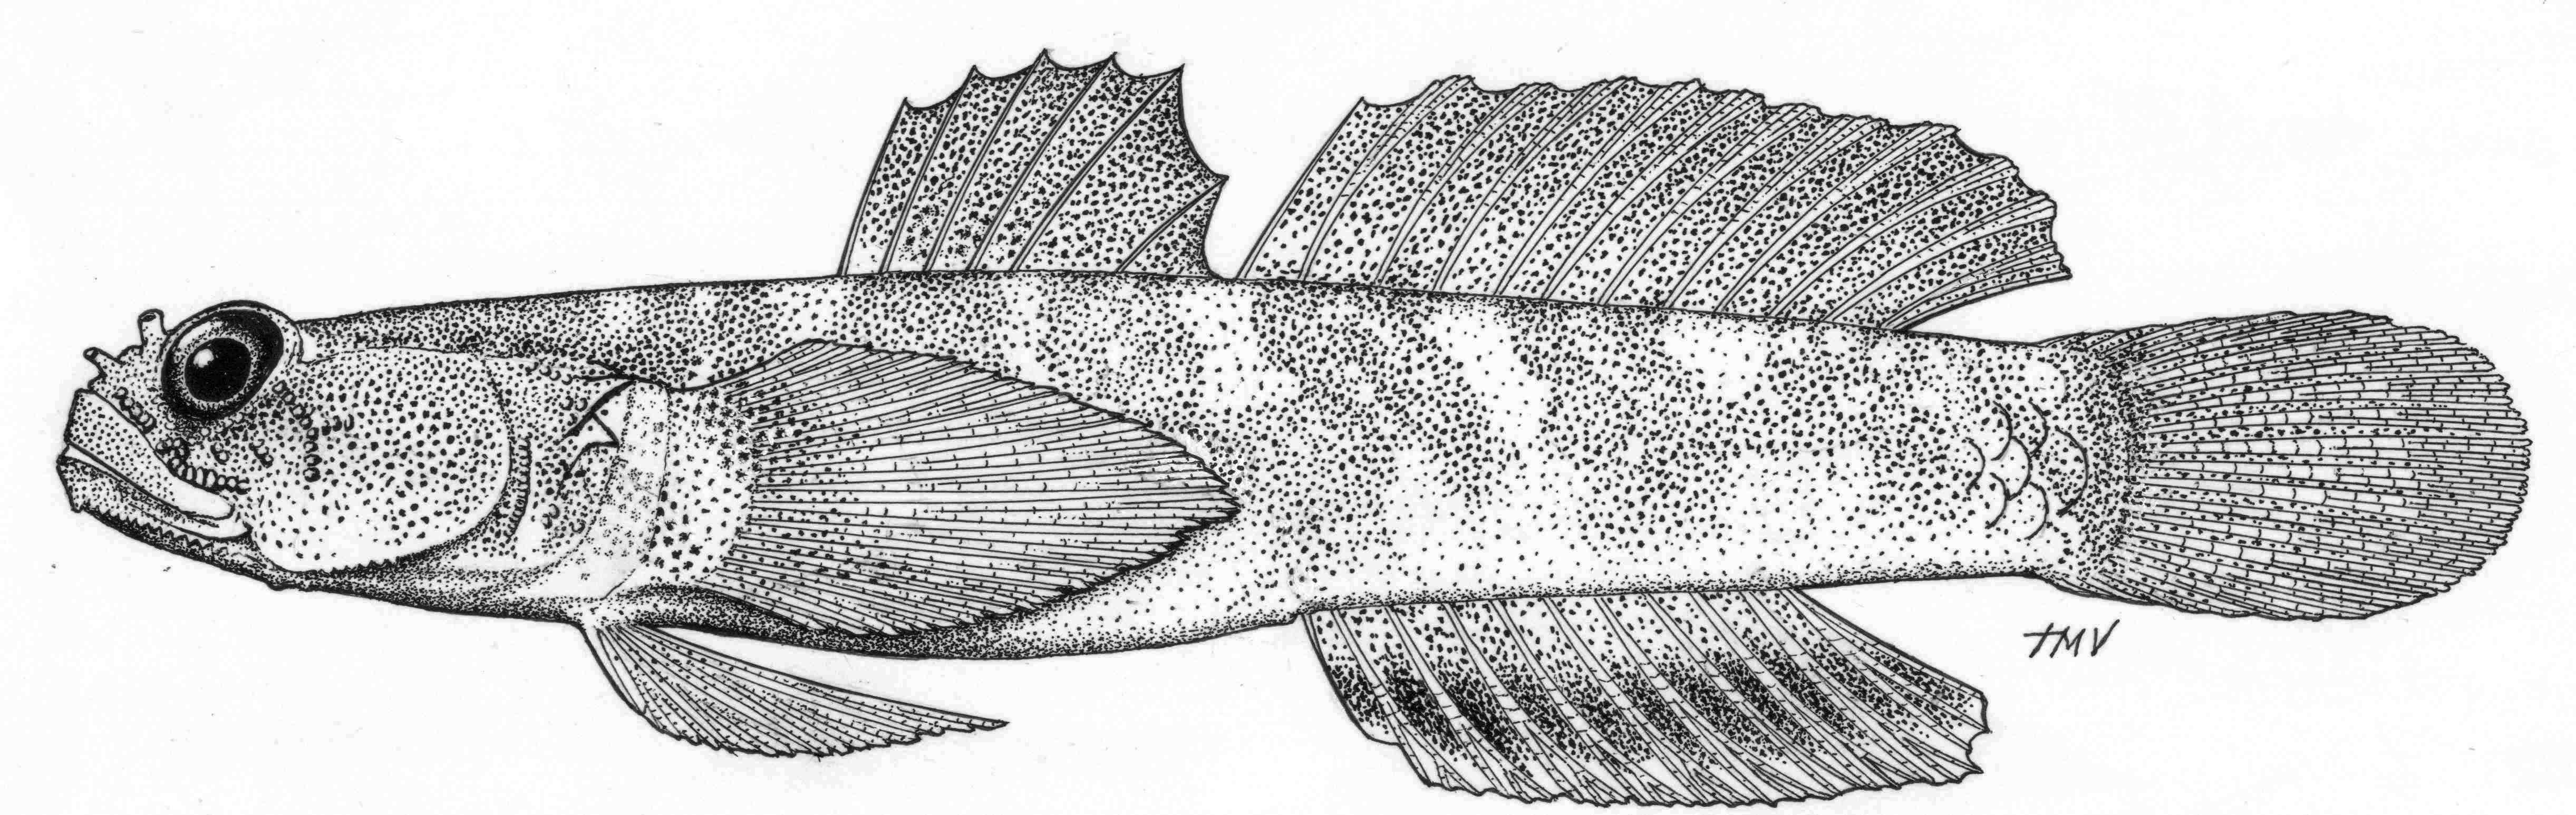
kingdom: Animalia
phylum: Chordata
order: Perciformes
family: Gobiidae
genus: Hetereleotris
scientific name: Hetereleotris apora
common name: Poreless goby
